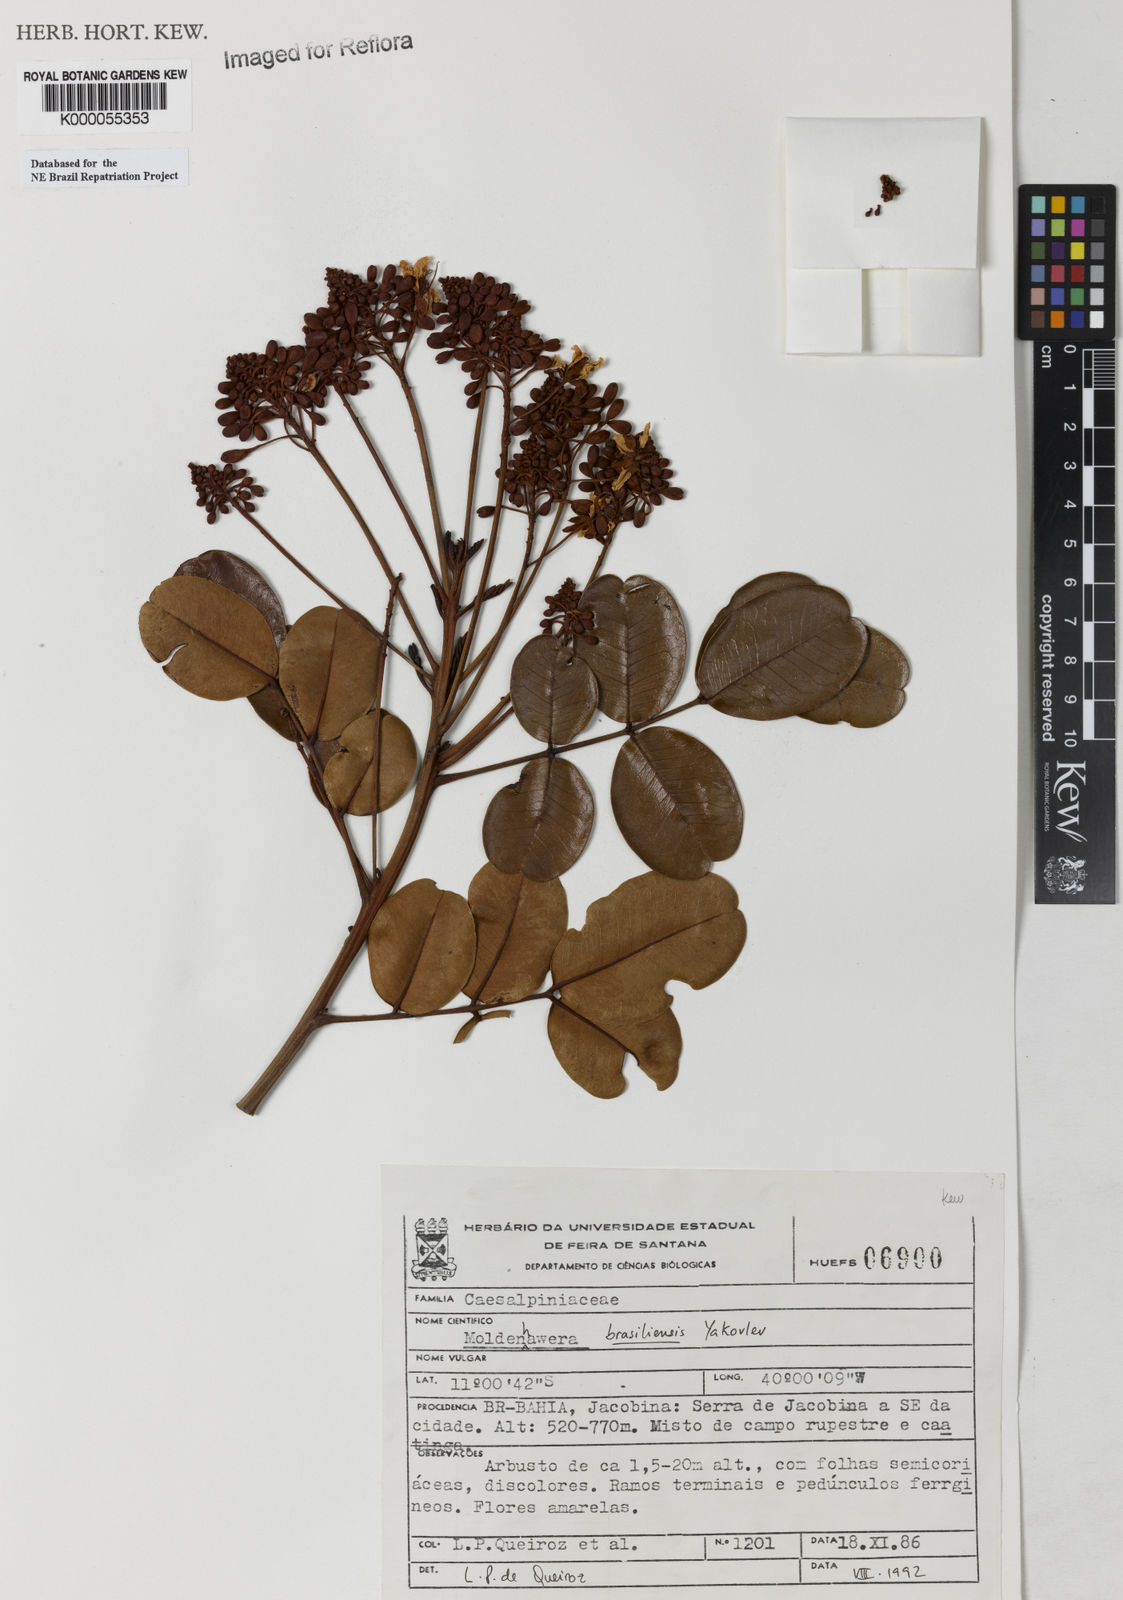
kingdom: Plantae
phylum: Tracheophyta
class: Magnoliopsida
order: Fabales
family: Fabaceae
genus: Moldenhawera
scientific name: Moldenhawera brasiliensis
